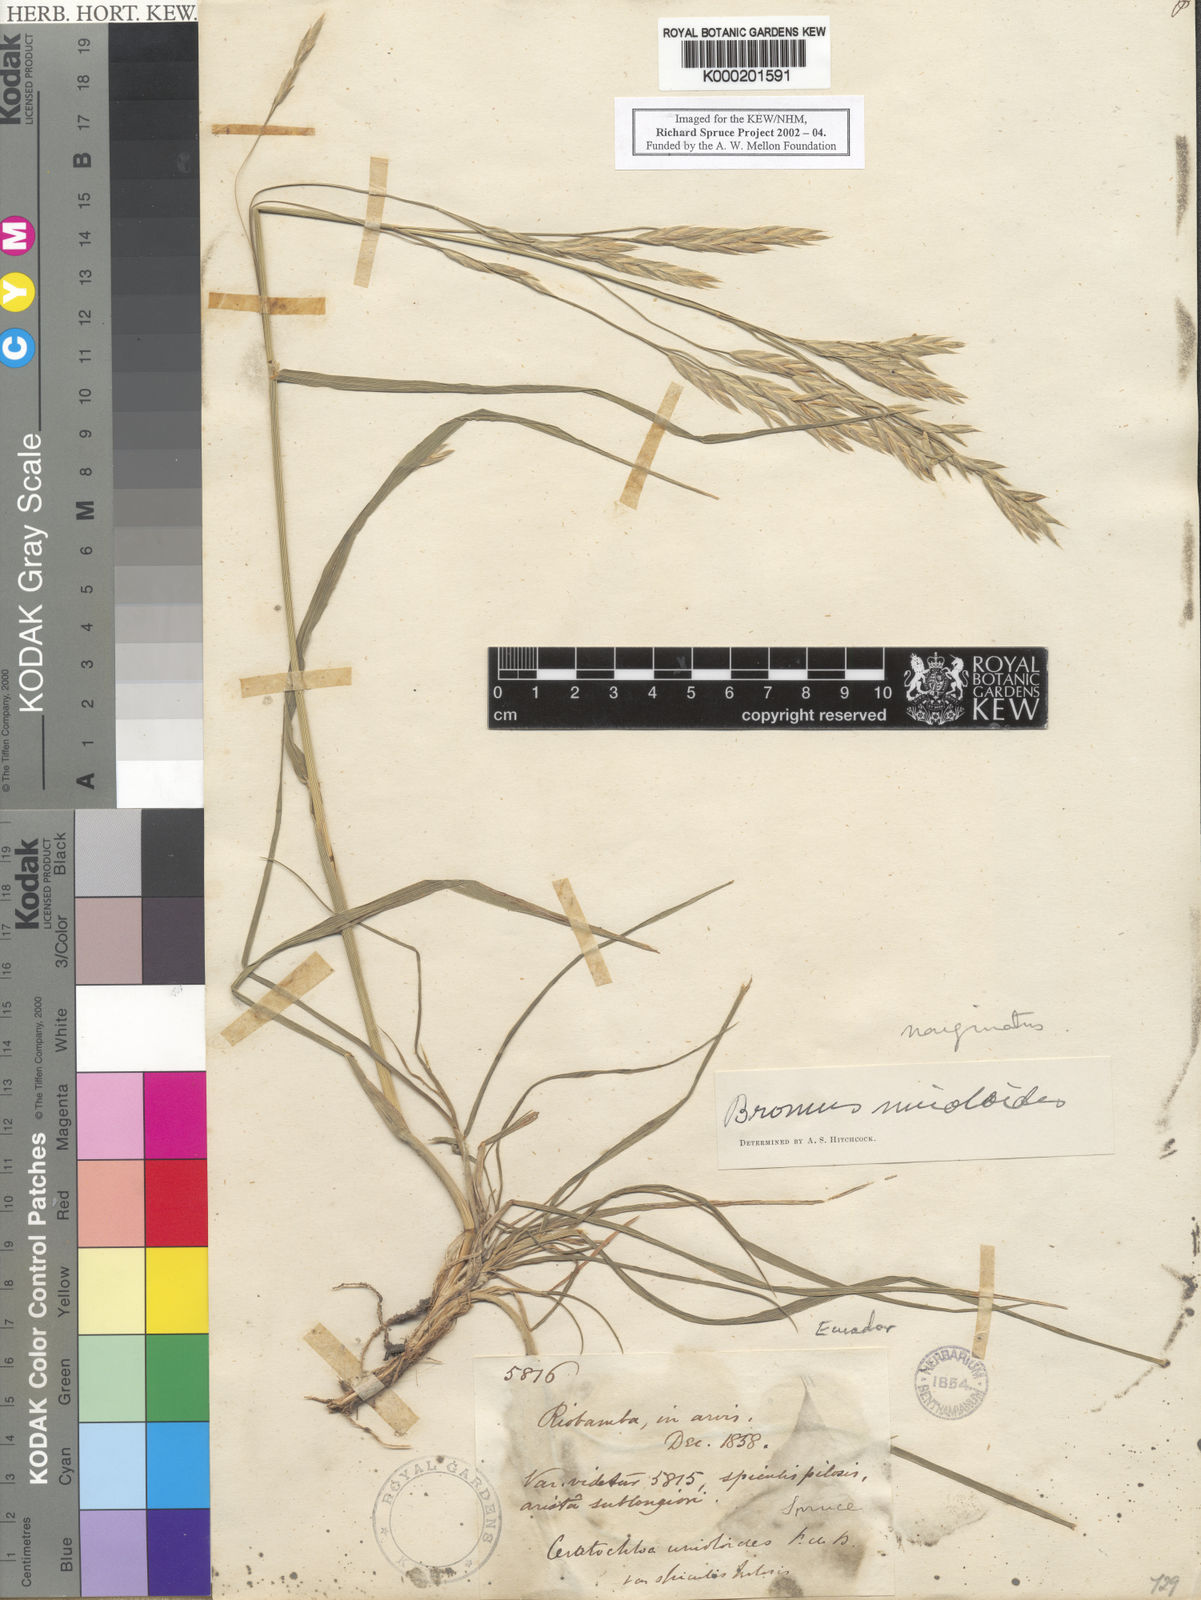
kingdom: Plantae
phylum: Tracheophyta
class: Liliopsida
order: Poales
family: Poaceae
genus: Bromus
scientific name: Bromus catharticus
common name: Rescuegrass
